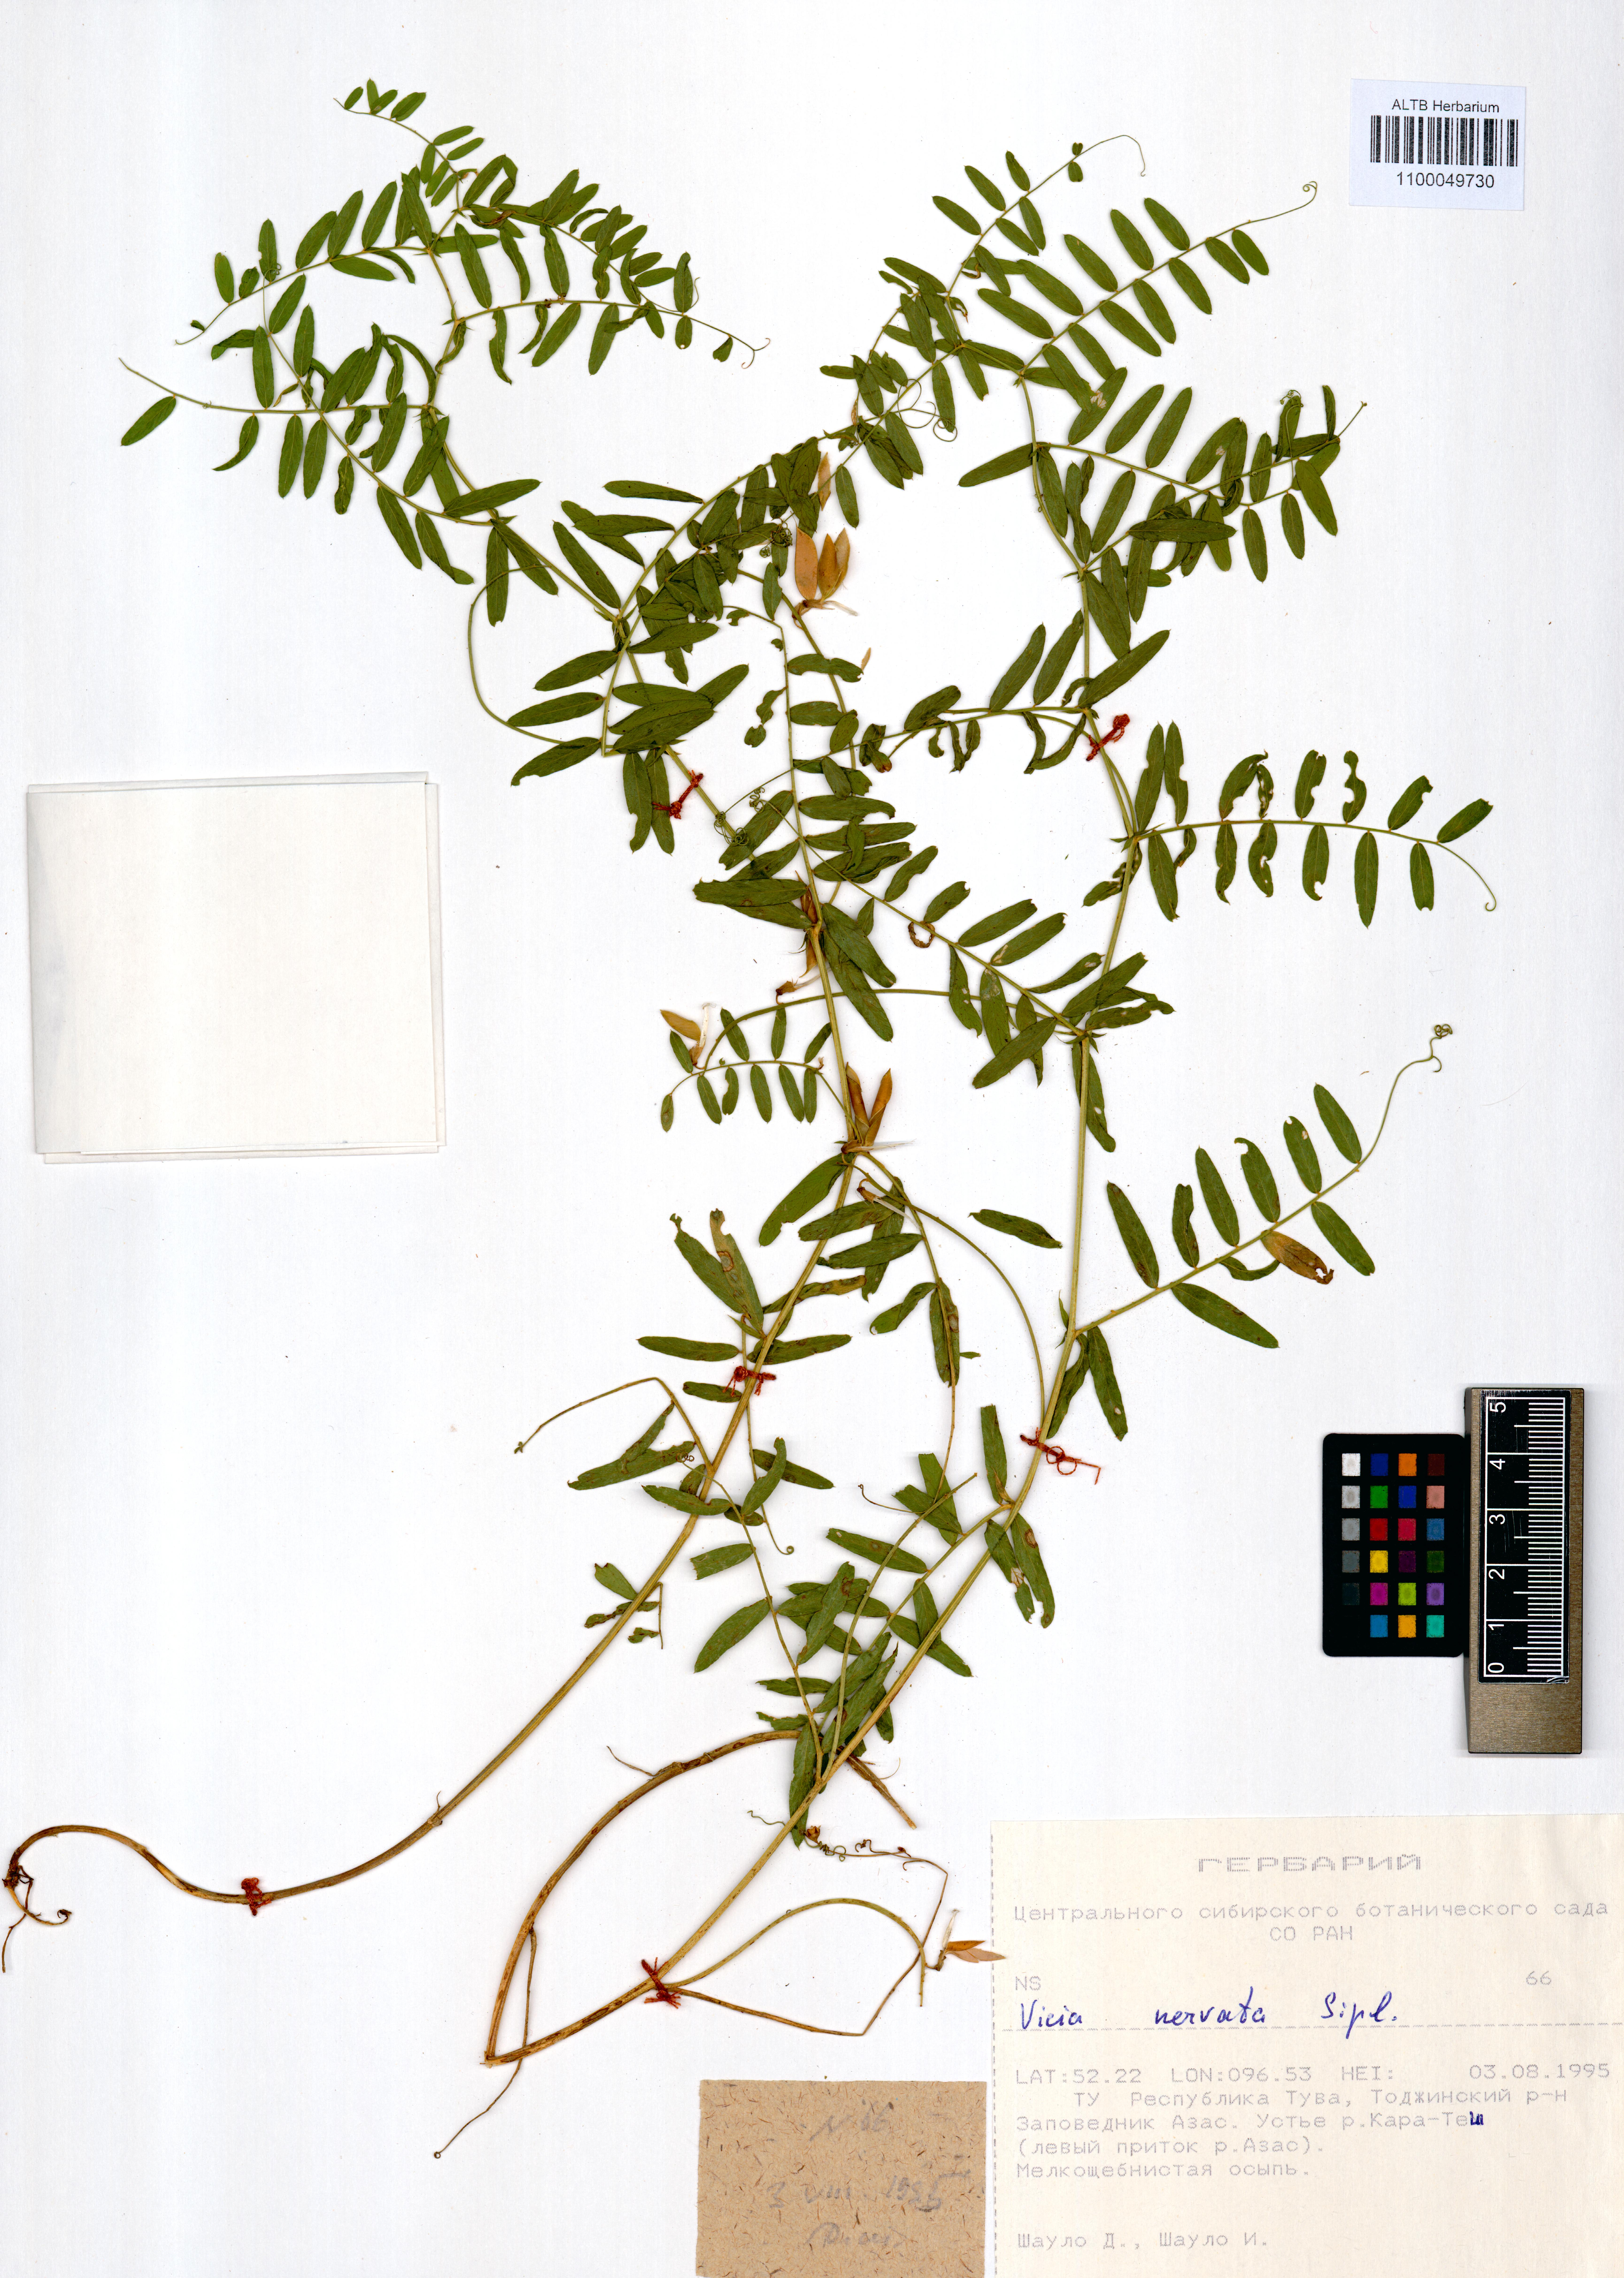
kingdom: Plantae
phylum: Tracheophyta
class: Magnoliopsida
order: Fabales
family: Fabaceae
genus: Vicia
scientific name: Vicia multicaulis
